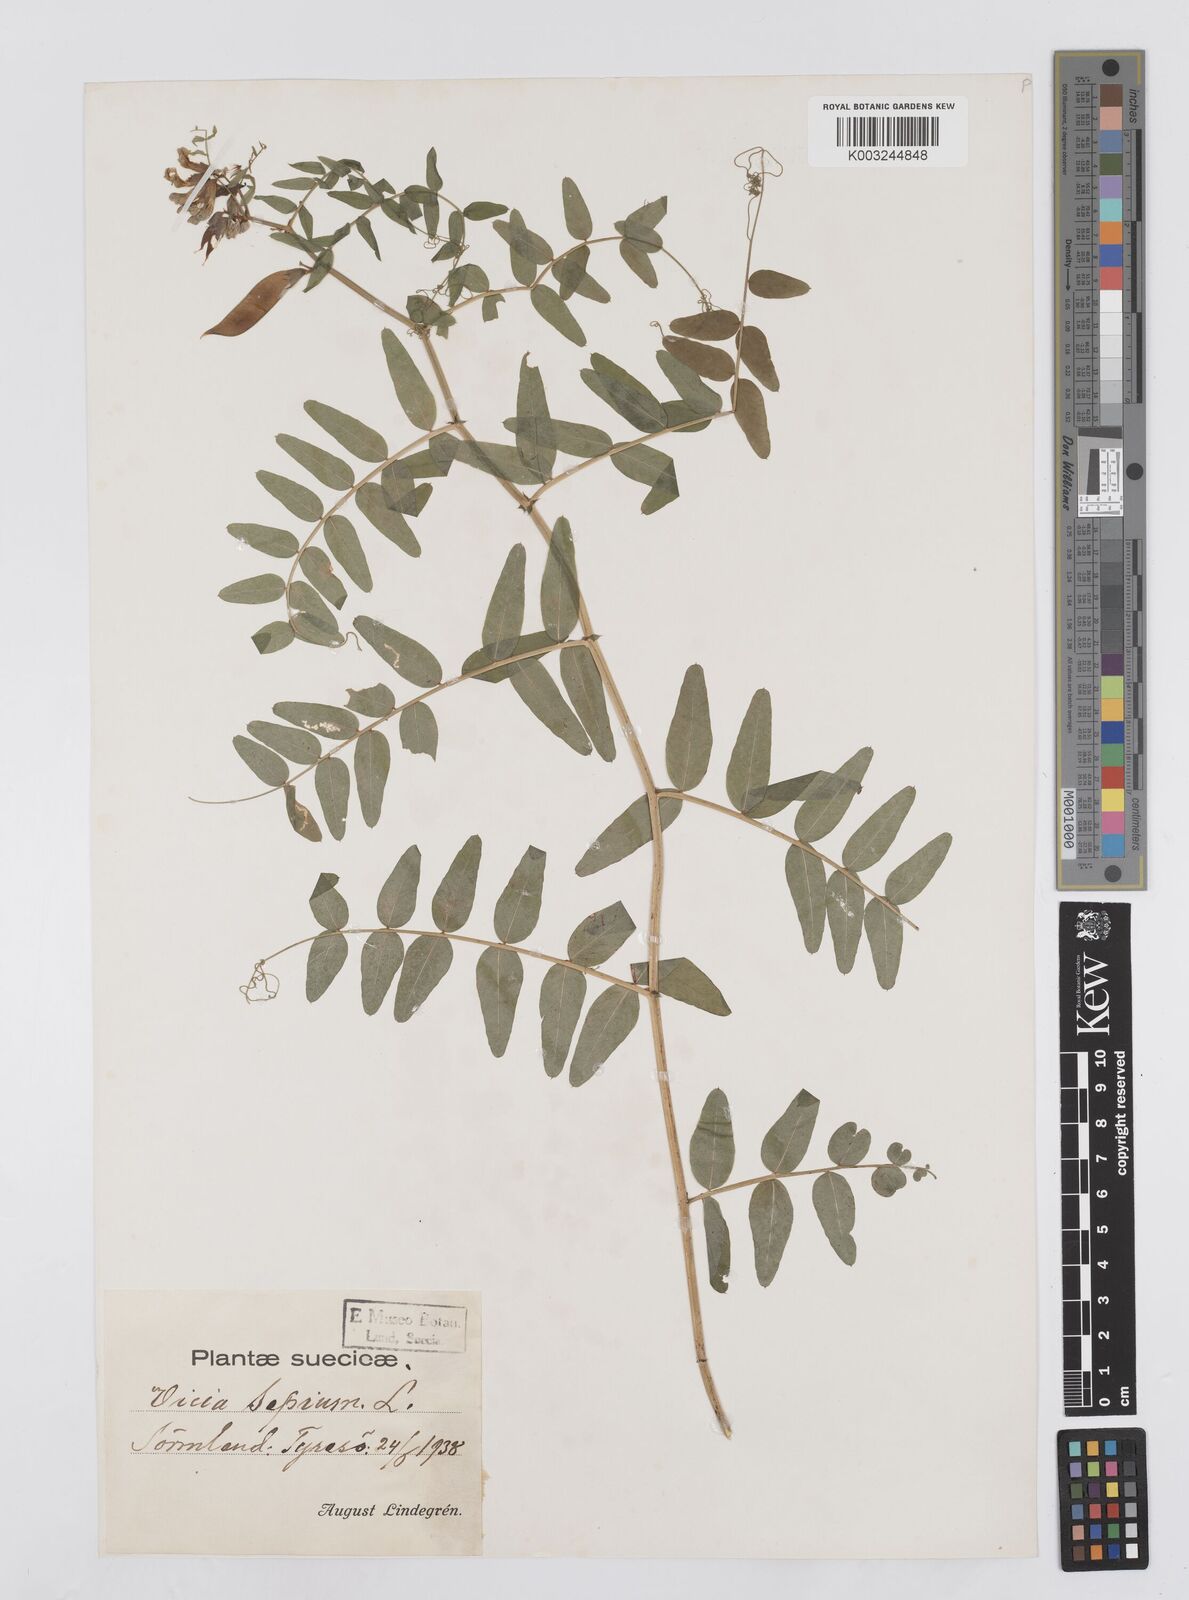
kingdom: Plantae
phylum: Tracheophyta
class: Magnoliopsida
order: Fabales
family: Fabaceae
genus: Vicia
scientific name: Vicia sepium
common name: Bush vetch
